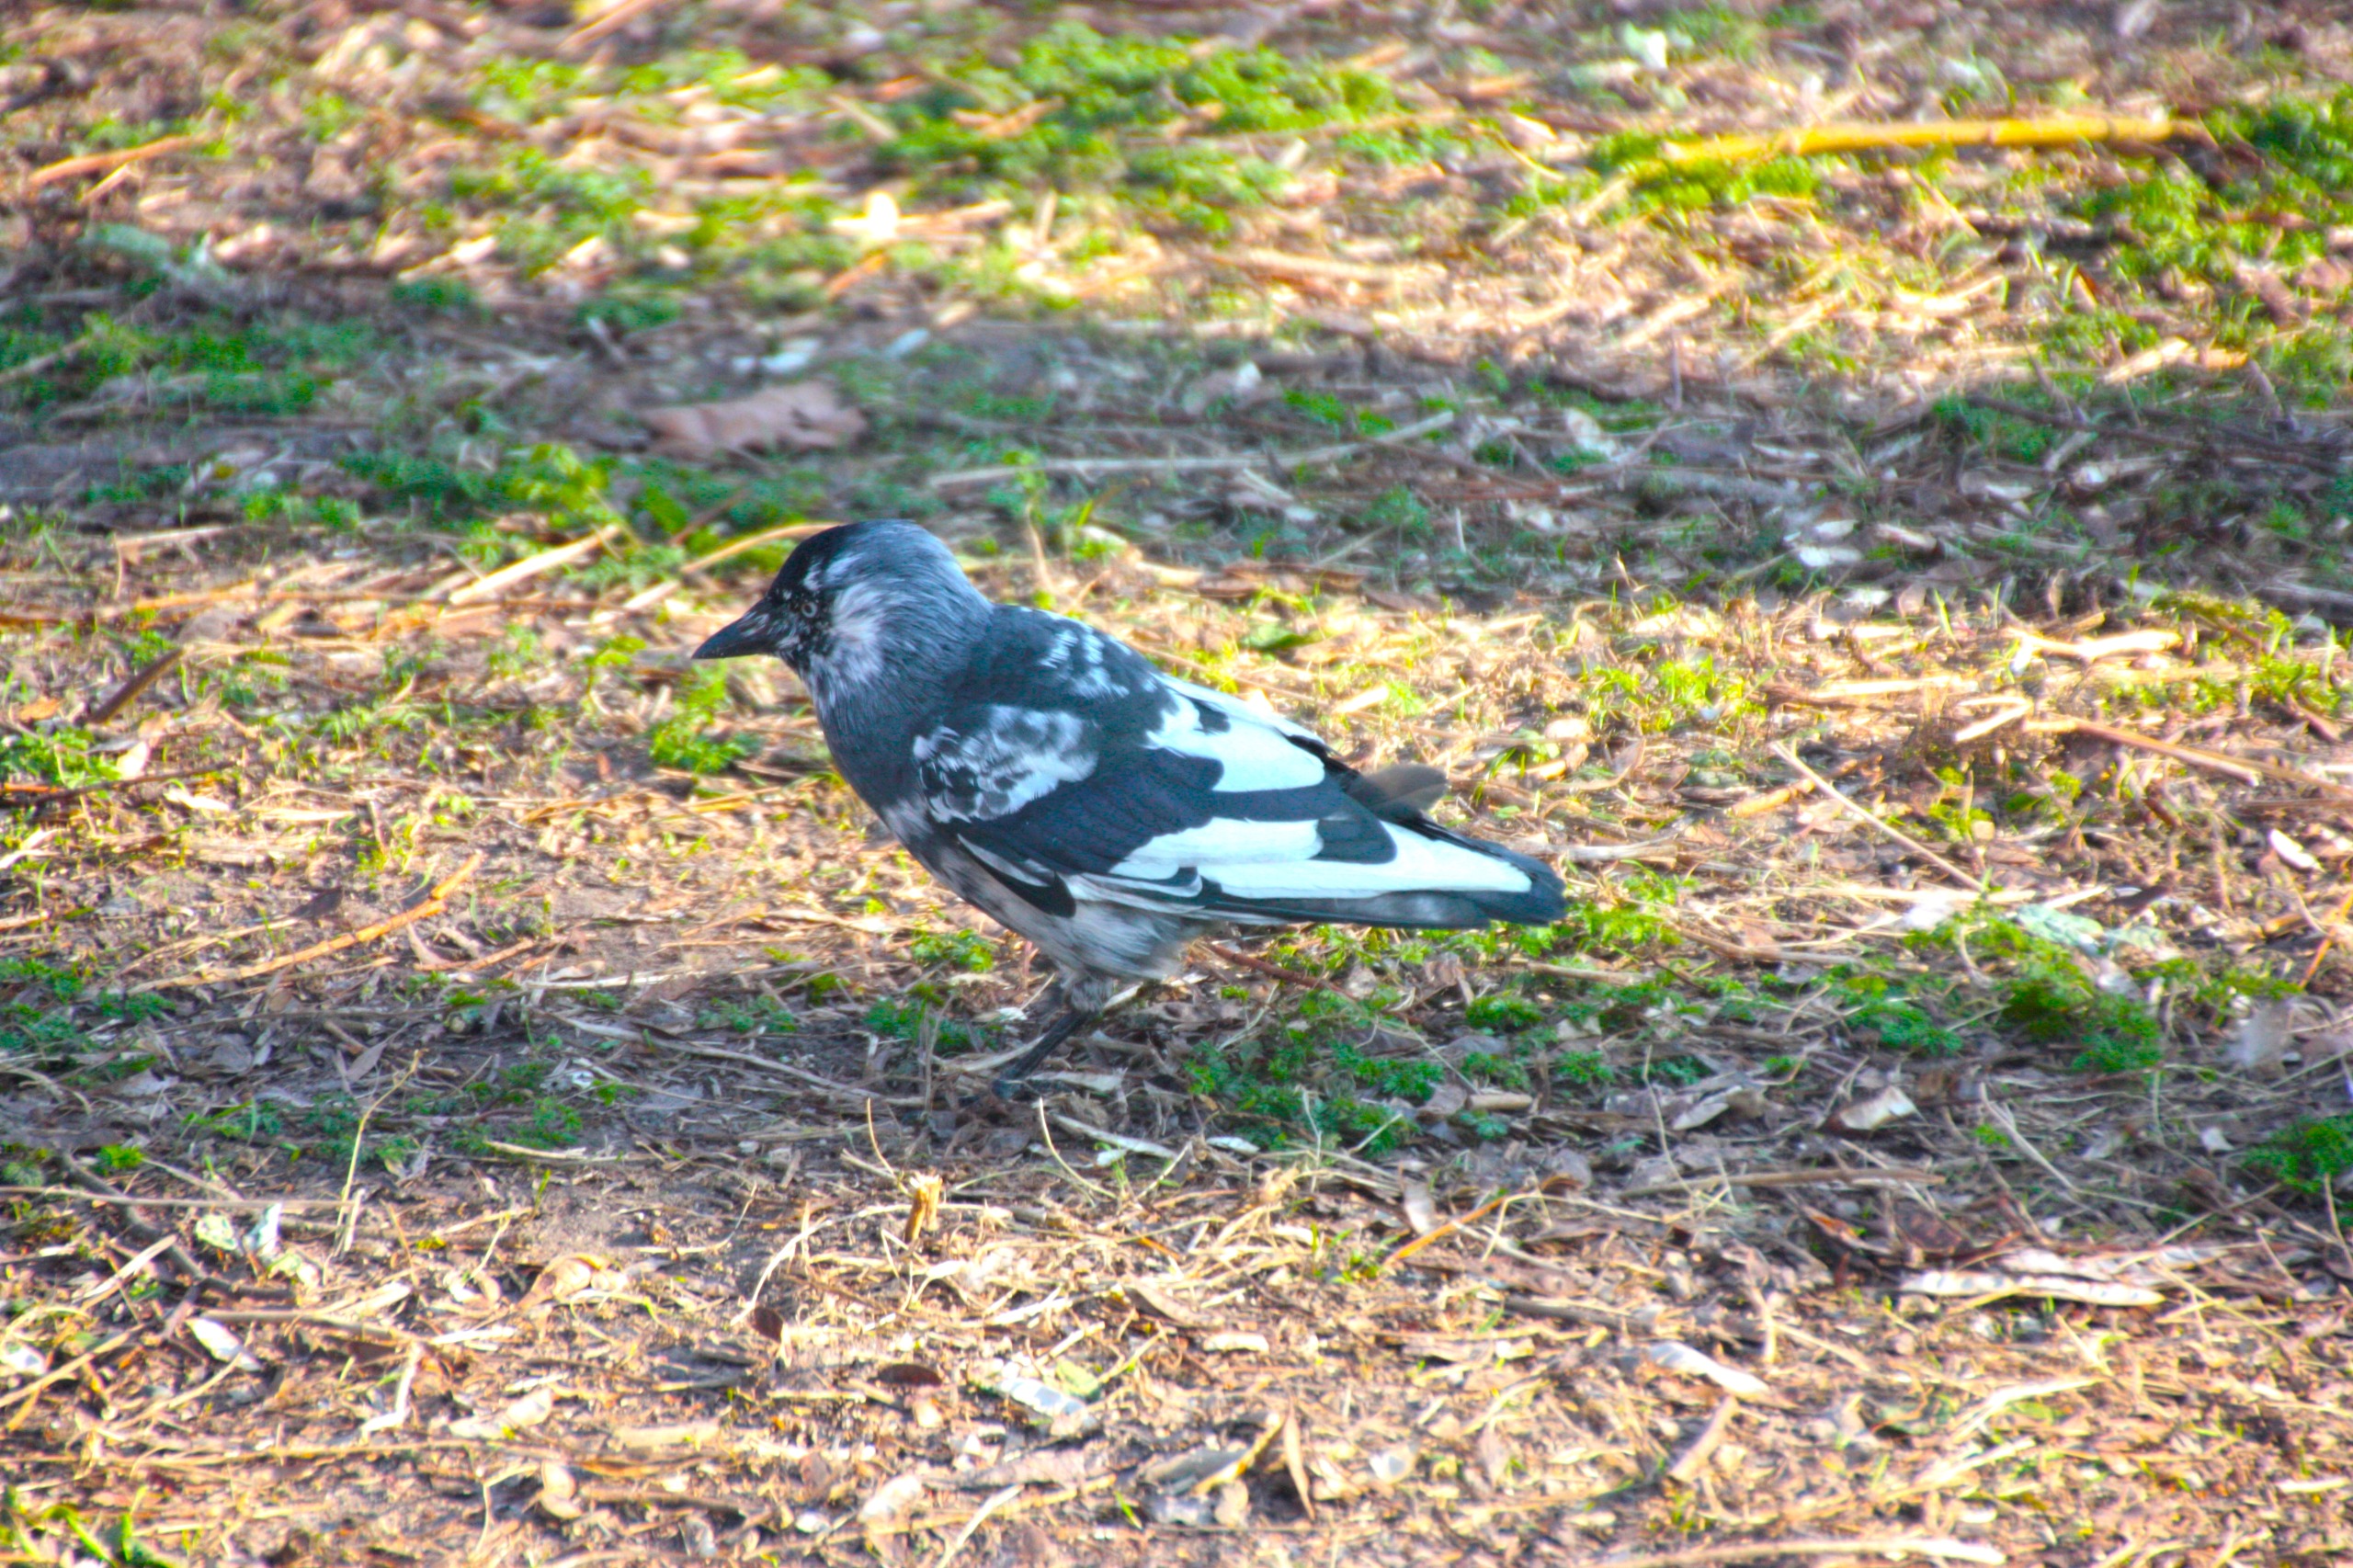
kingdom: Animalia
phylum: Chordata
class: Aves
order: Passeriformes
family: Corvidae
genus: Coloeus
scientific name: Coloeus monedula
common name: Allike
